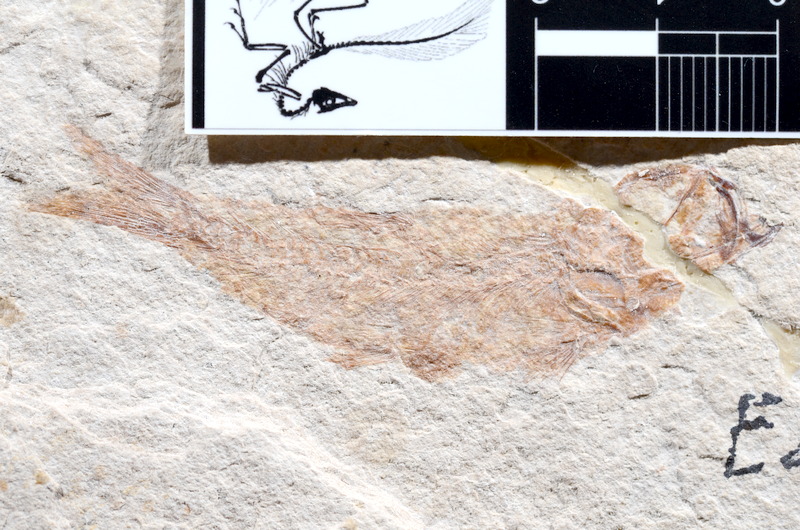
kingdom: Animalia
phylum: Chordata
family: Ascalaboidae
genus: Tharsis
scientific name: Tharsis dubius
